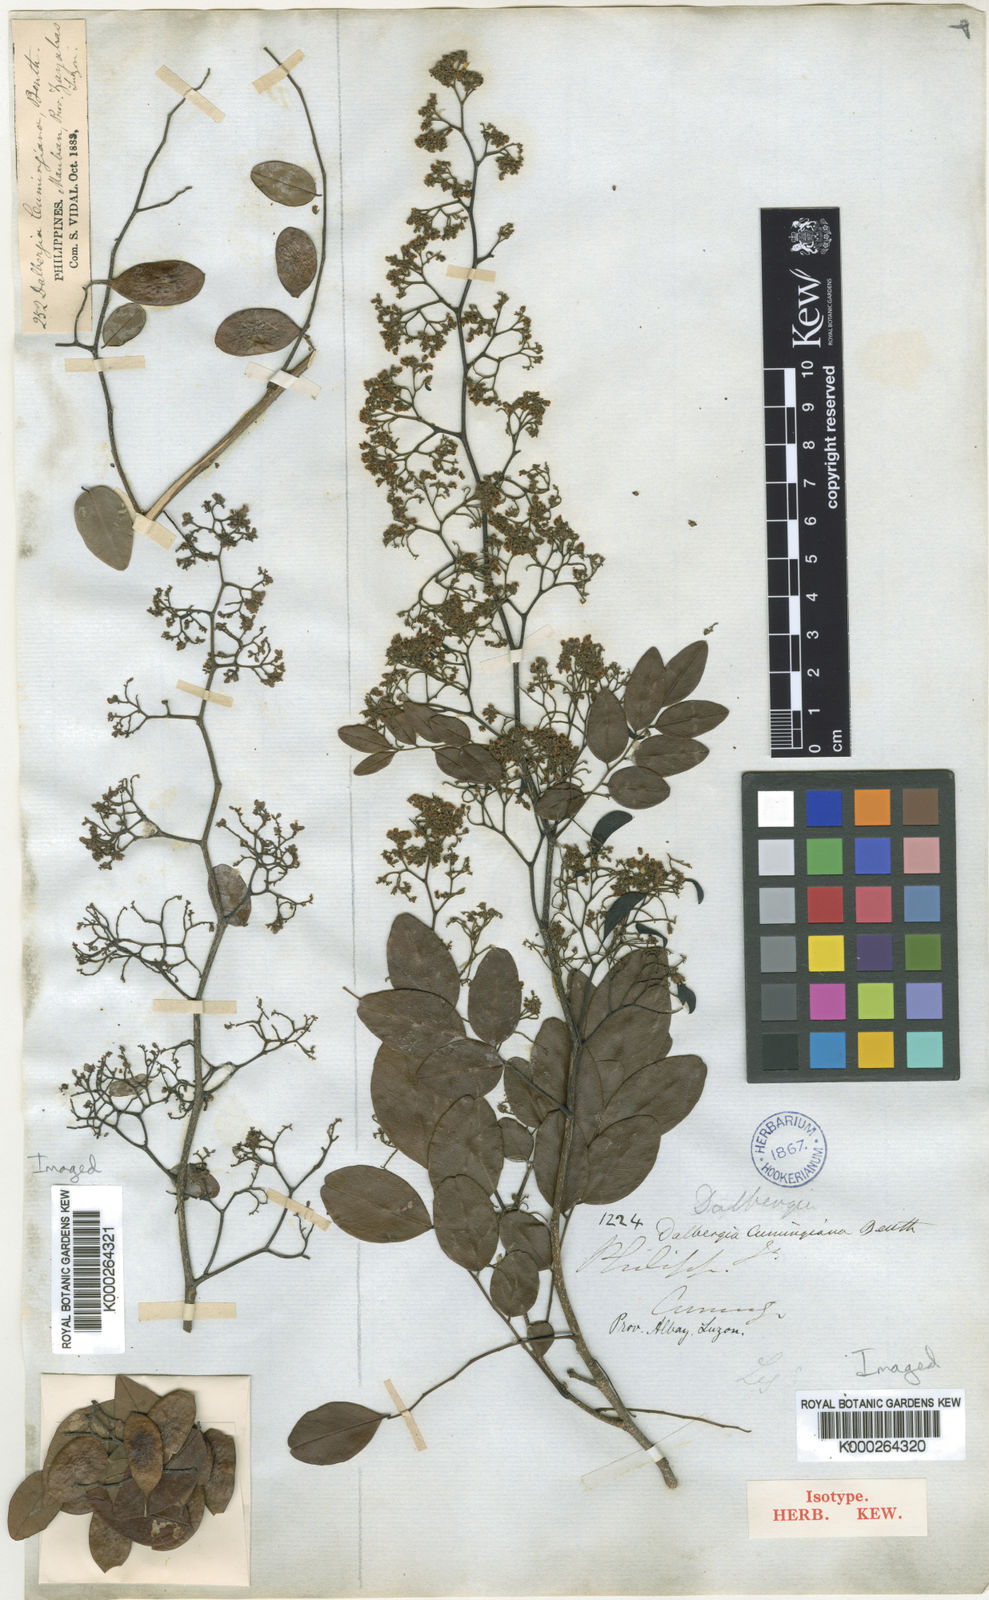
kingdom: Plantae
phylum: Tracheophyta
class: Magnoliopsida
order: Fabales
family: Fabaceae
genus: Dalbergia
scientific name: Dalbergia cumingiana
